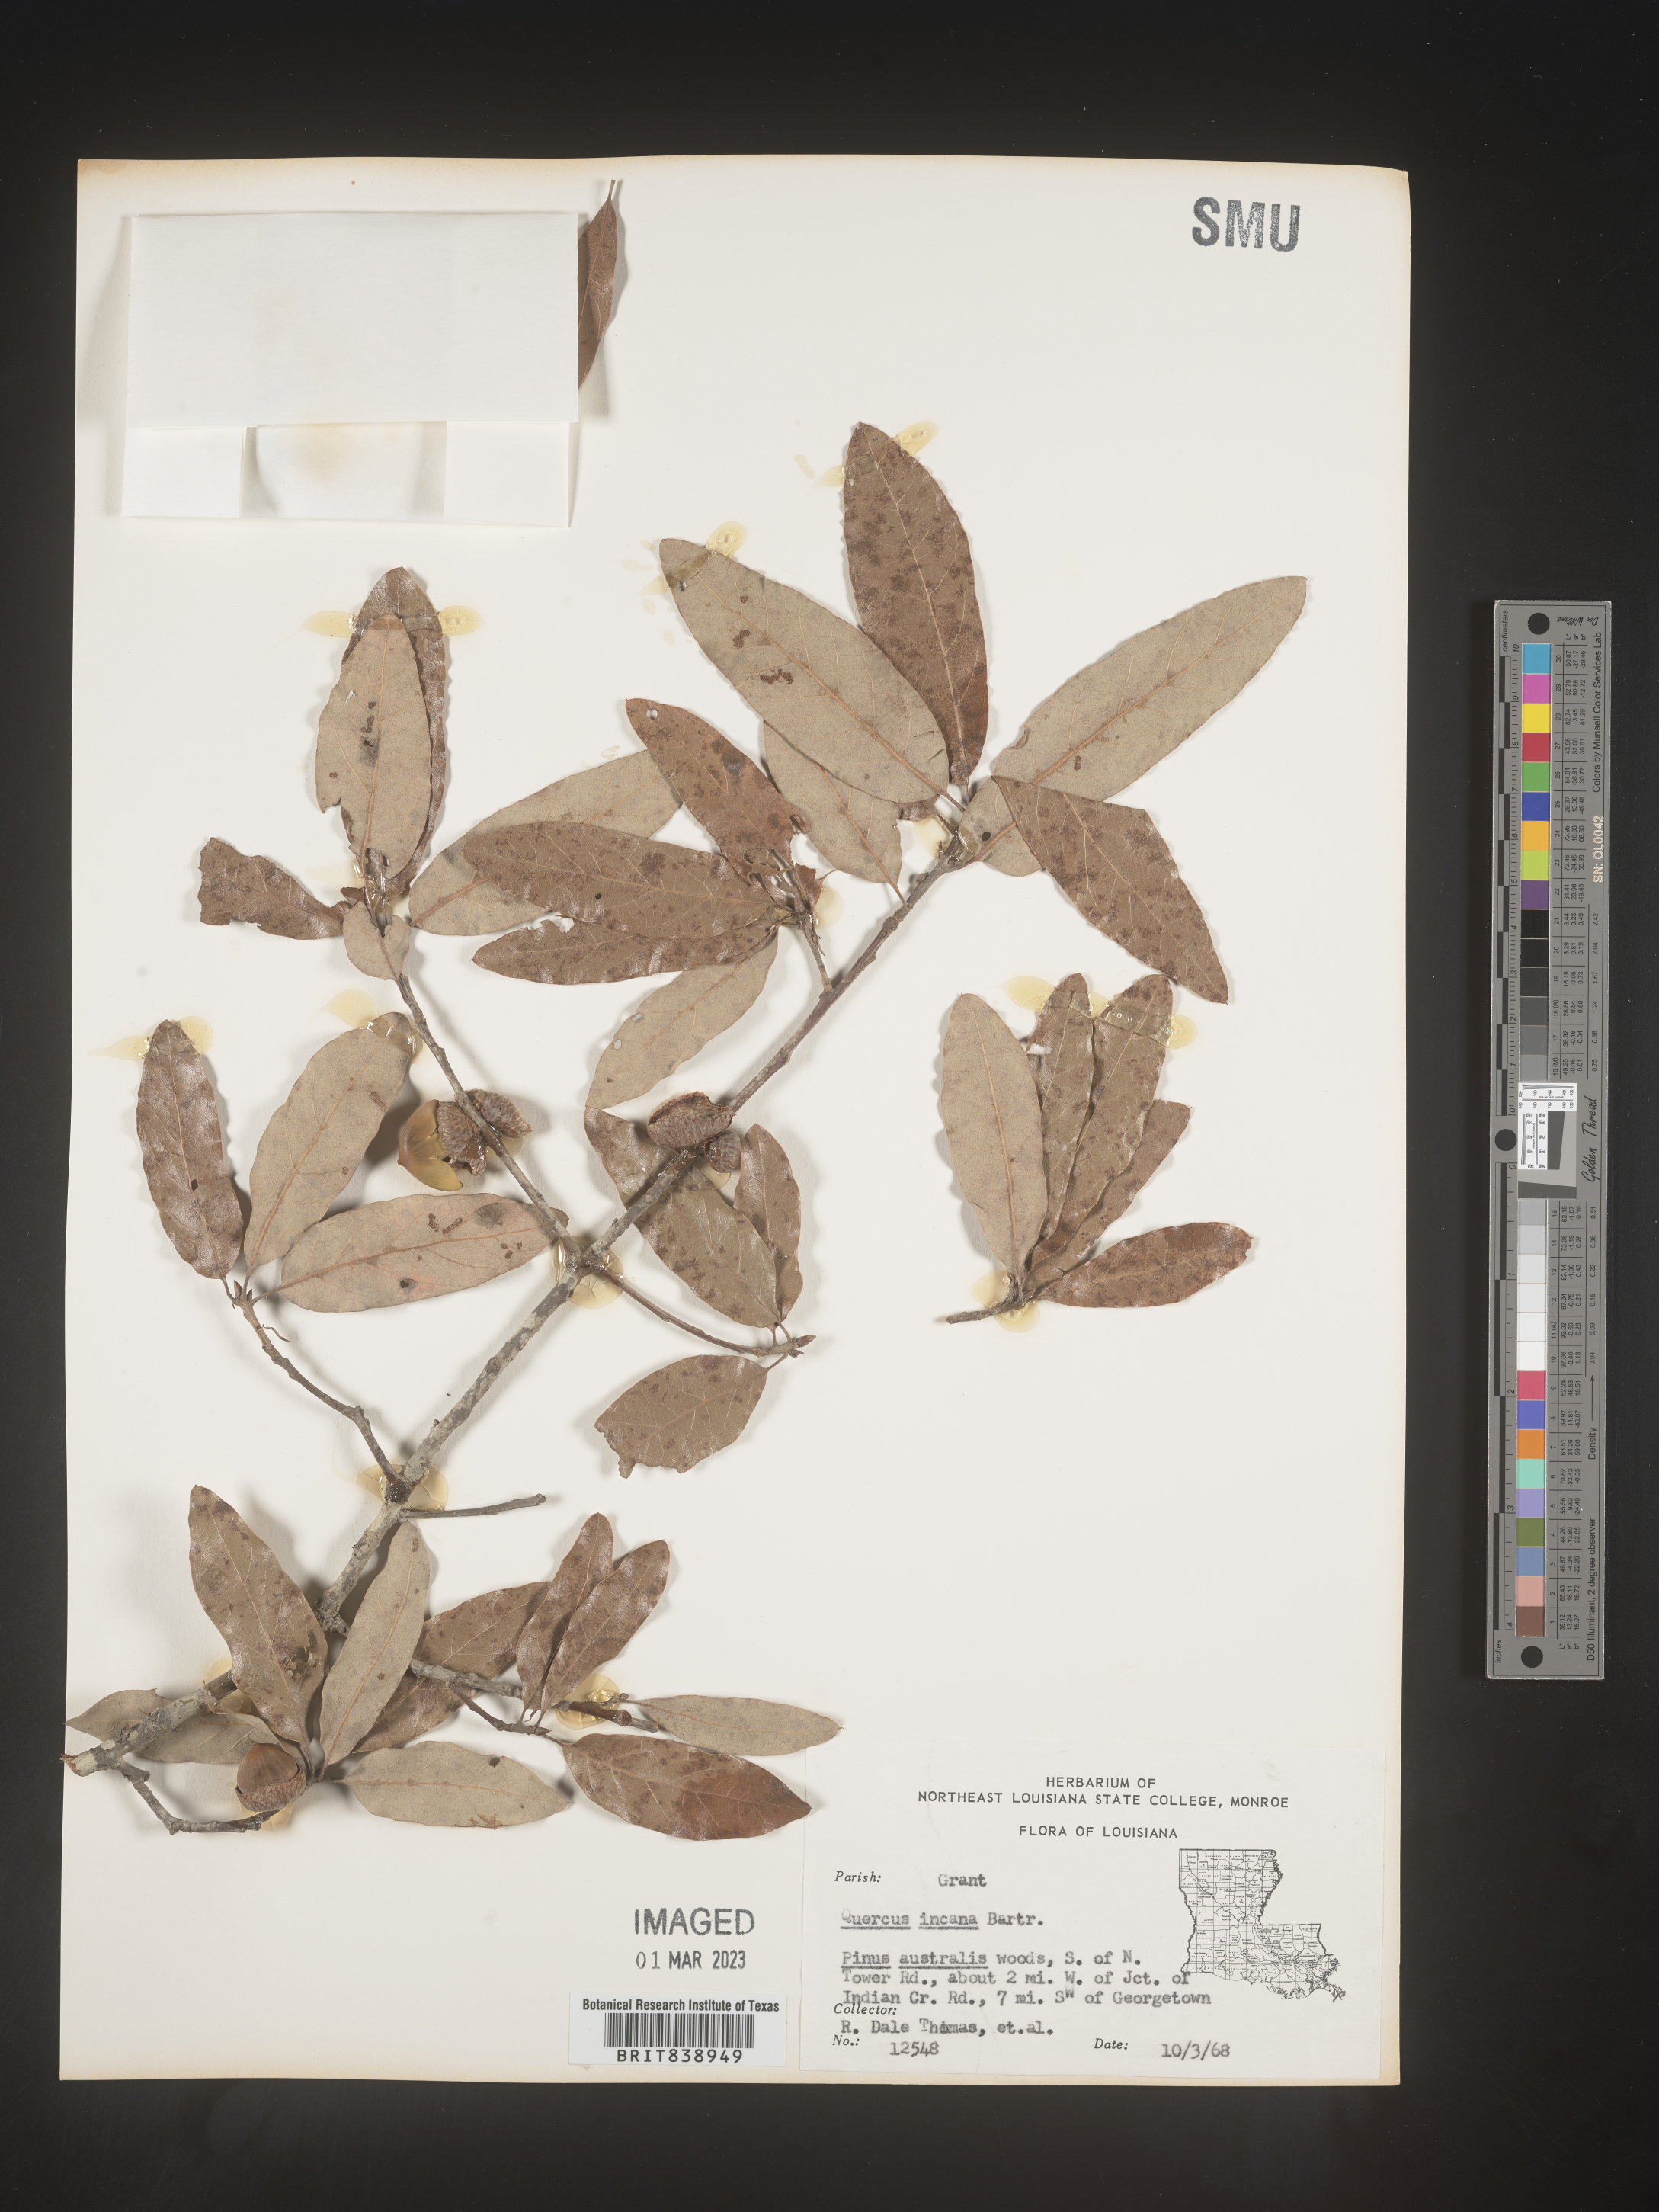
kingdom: Plantae
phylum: Tracheophyta
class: Magnoliopsida
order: Fagales
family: Fagaceae
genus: Quercus
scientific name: Quercus incana
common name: Bluejack oak
